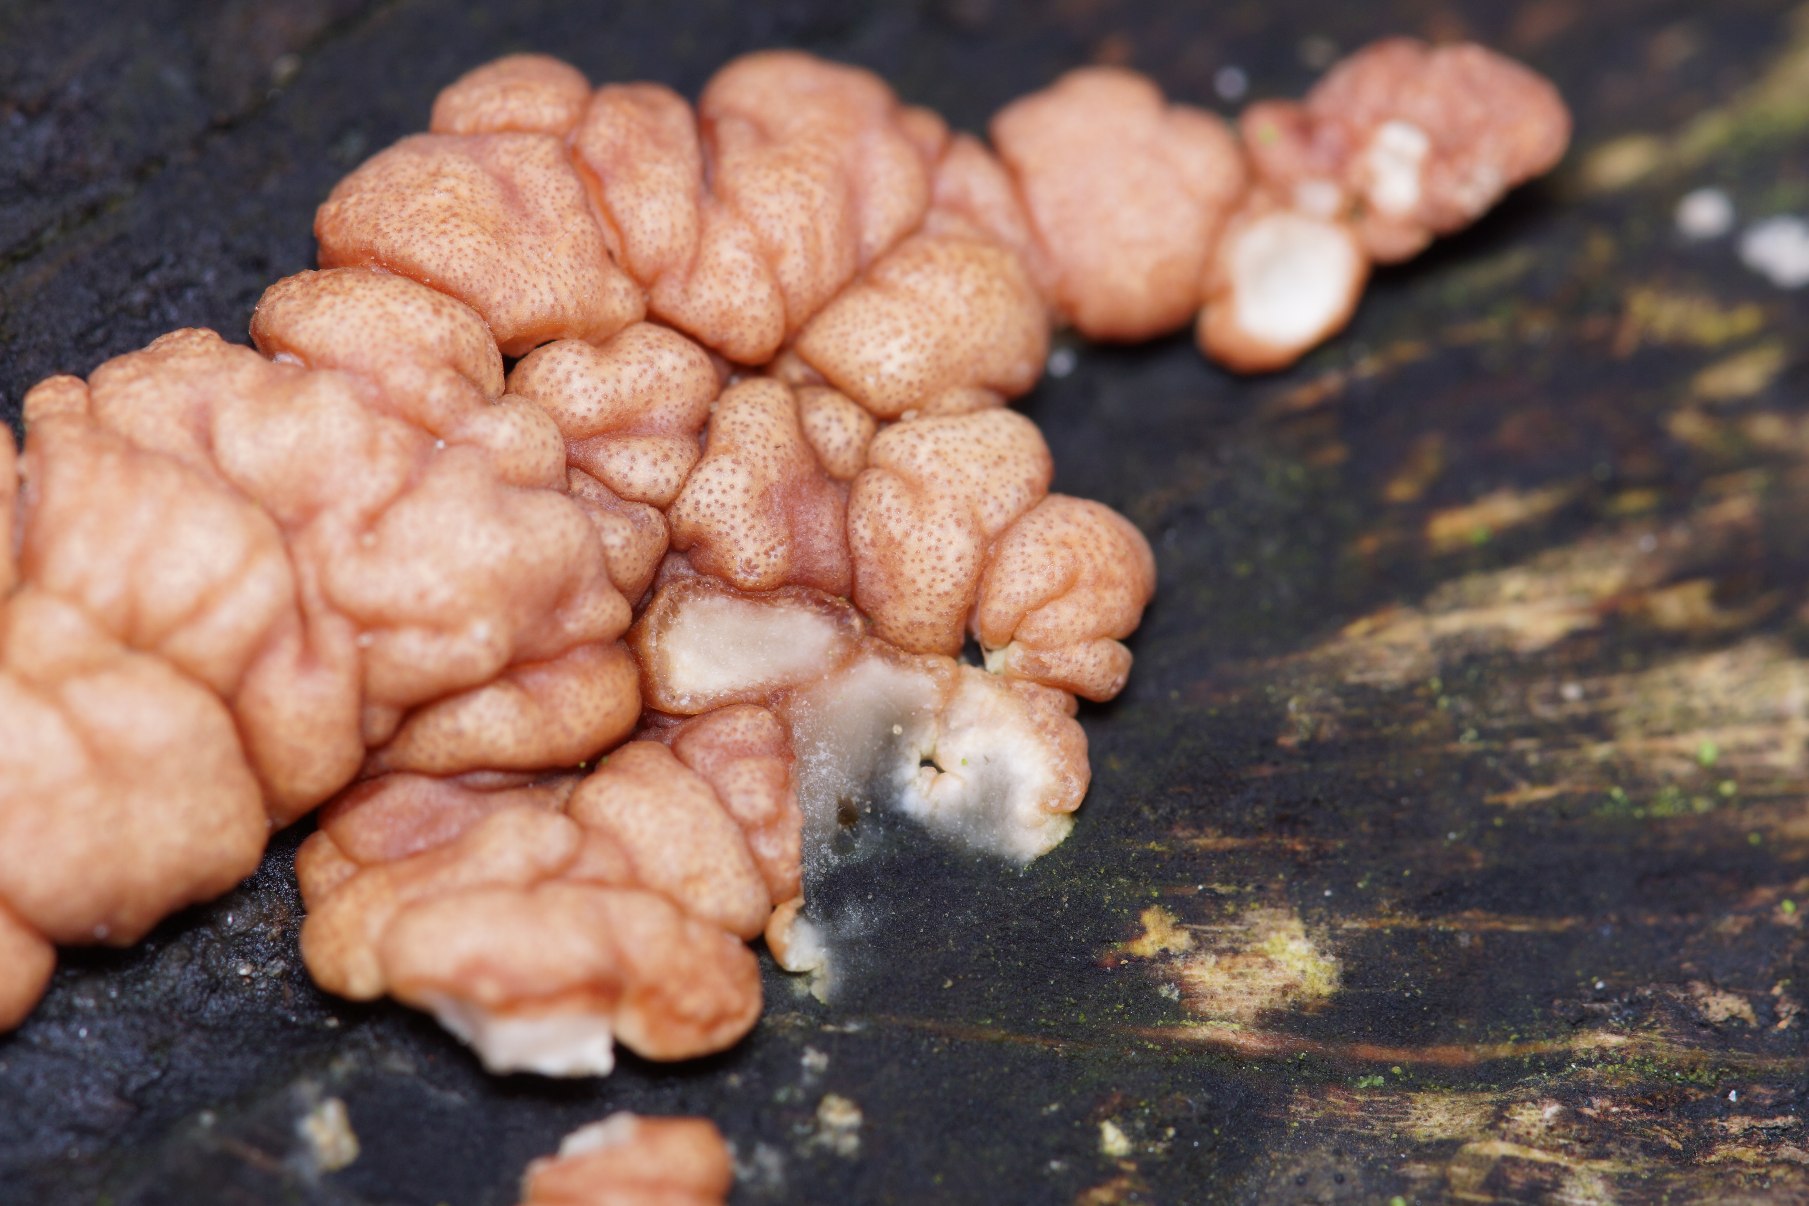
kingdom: Fungi
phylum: Ascomycota
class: Sordariomycetes
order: Hypocreales
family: Hypocreaceae
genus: Trichoderma
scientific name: Trichoderma europaeum
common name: Rosabrun kødkerne
